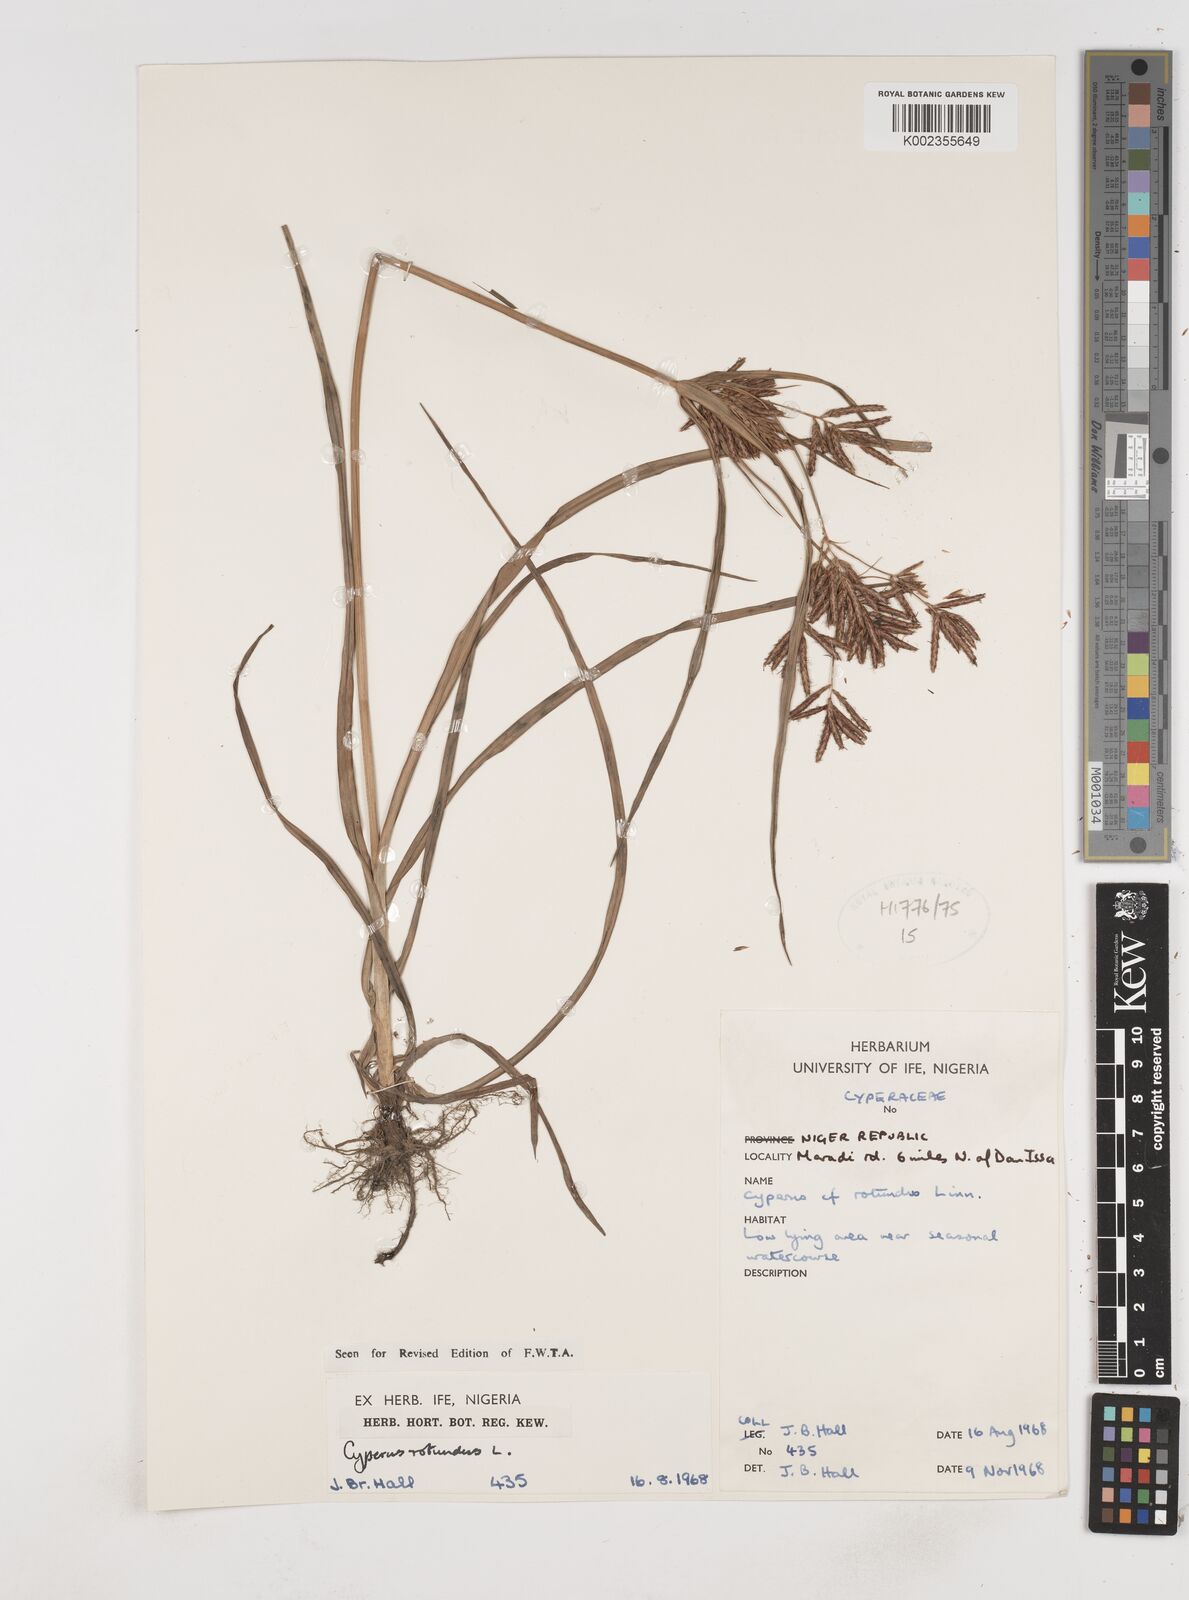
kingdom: Plantae
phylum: Tracheophyta
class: Liliopsida
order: Poales
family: Cyperaceae
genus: Cyperus
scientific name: Cyperus rotundus
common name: Nutgrass
